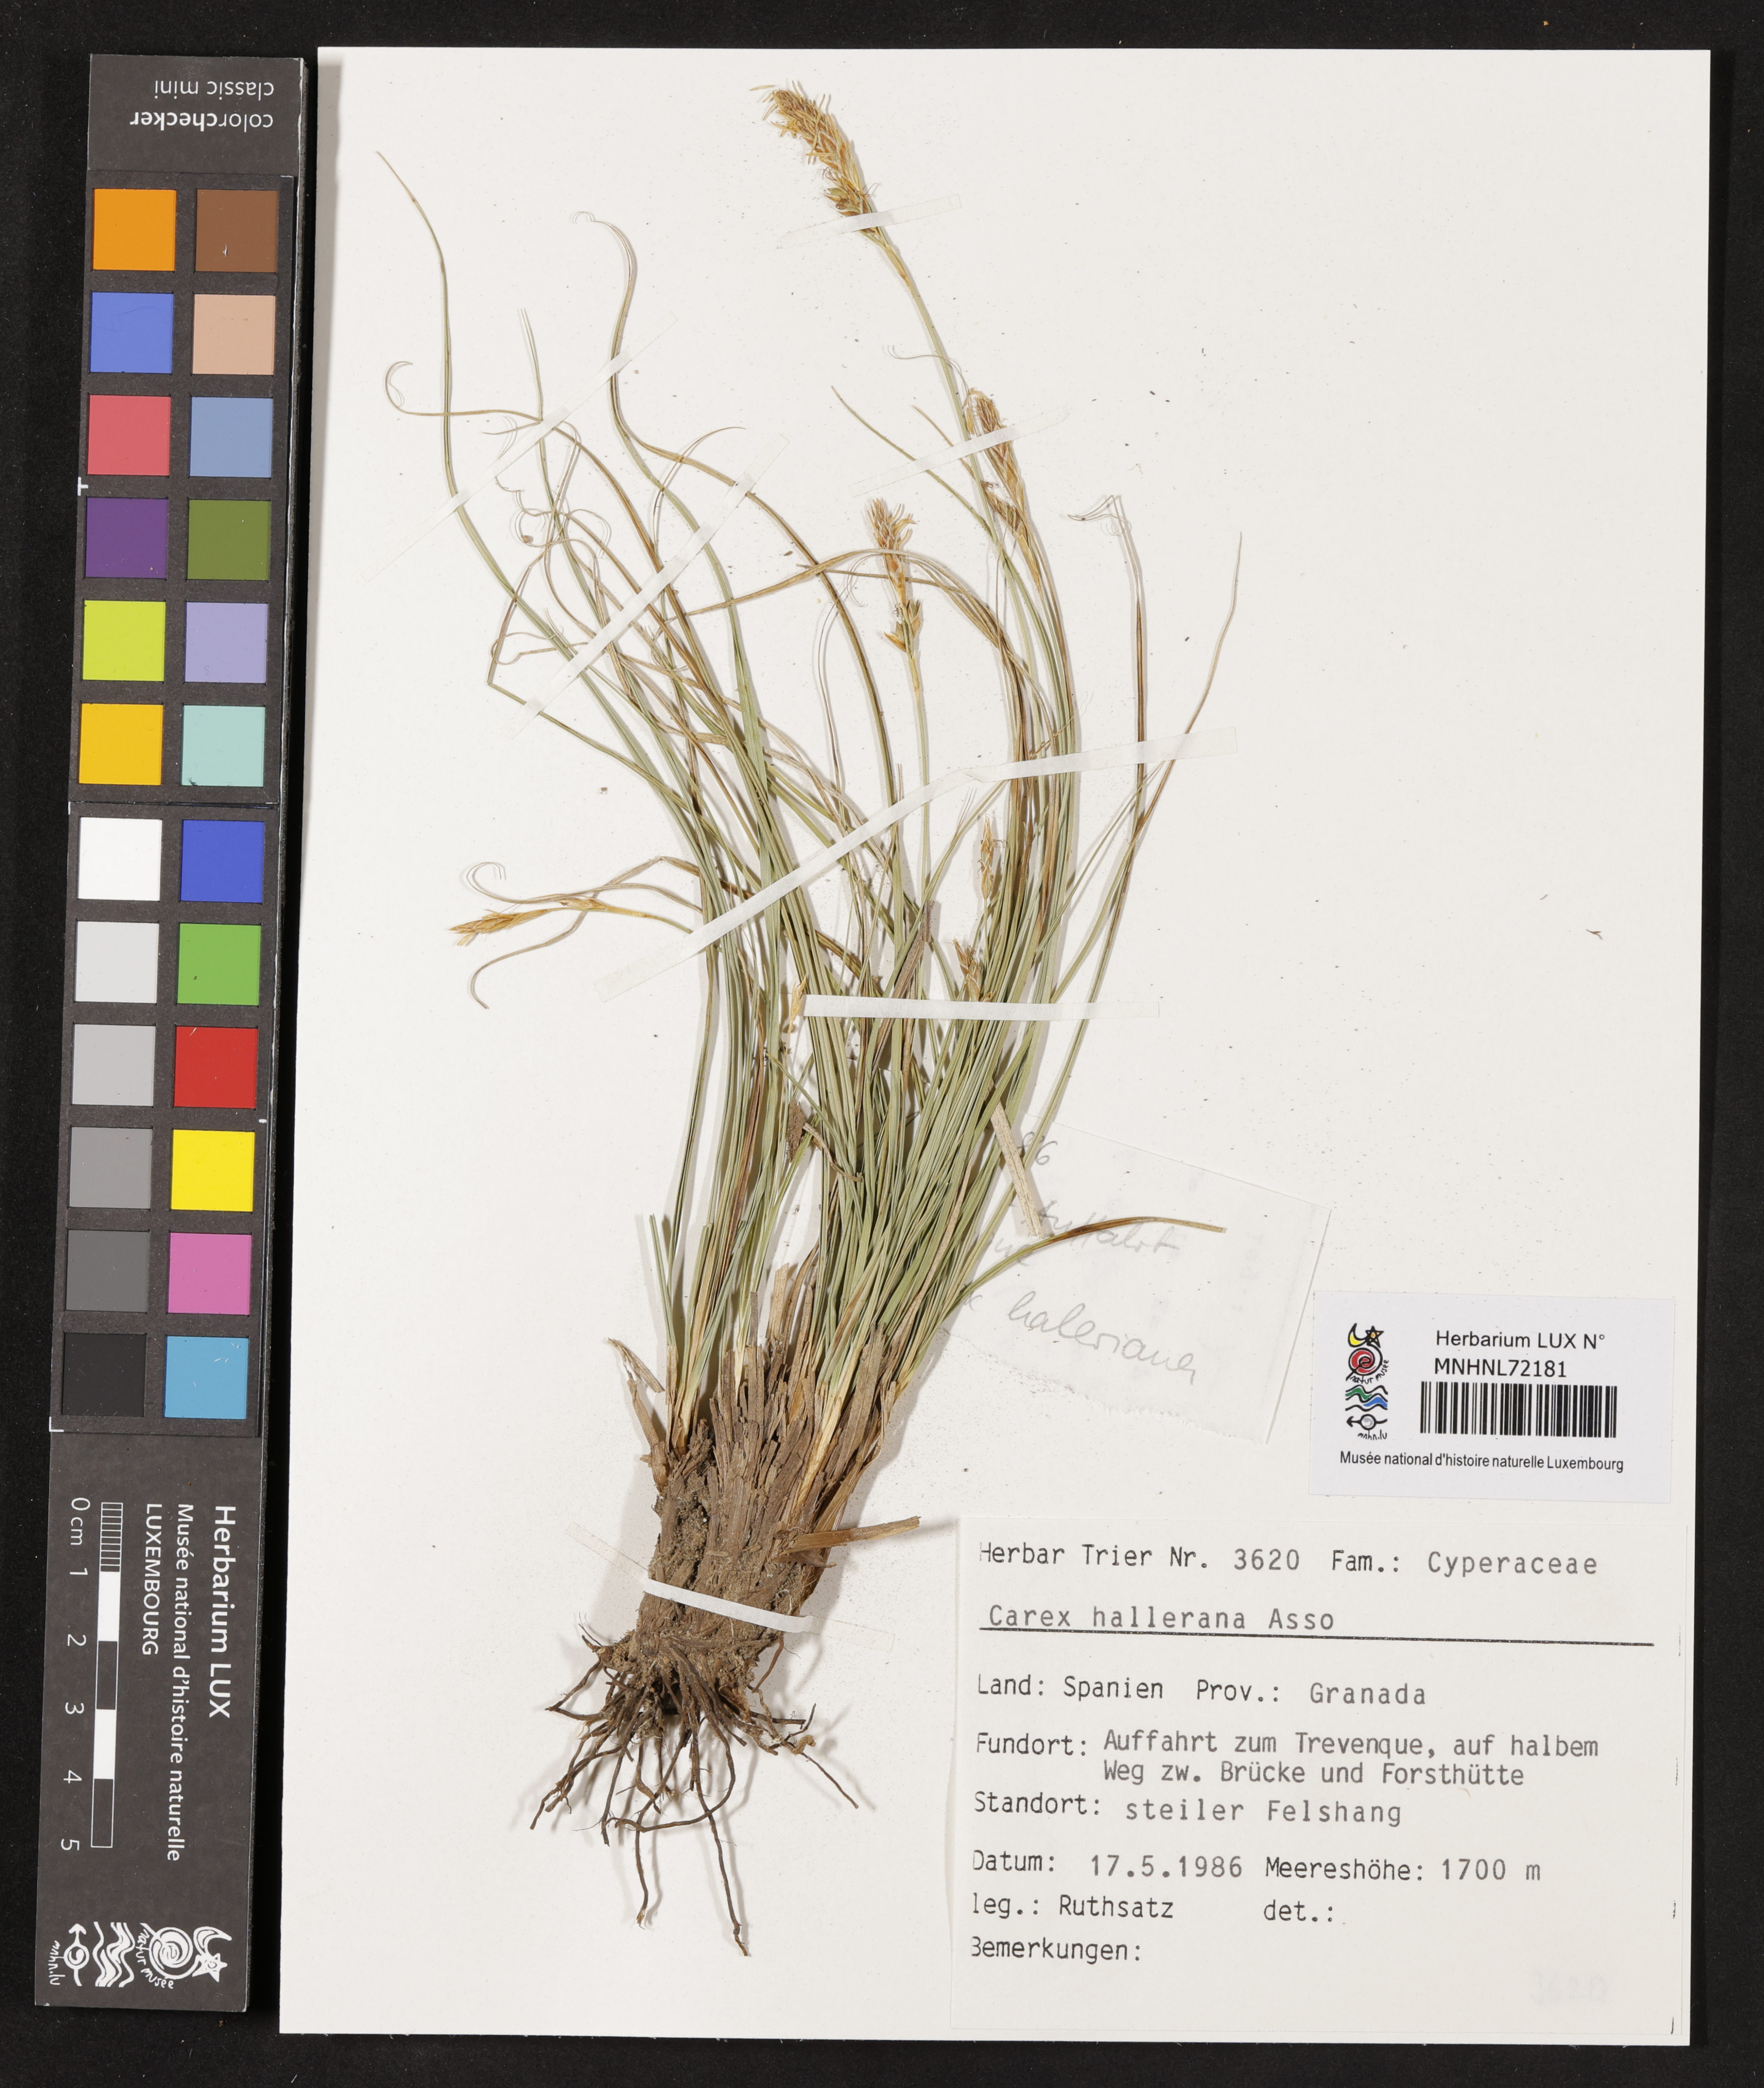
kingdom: Plantae
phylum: Tracheophyta
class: Liliopsida
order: Poales
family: Cyperaceae
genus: Carex
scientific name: Carex halleriana
